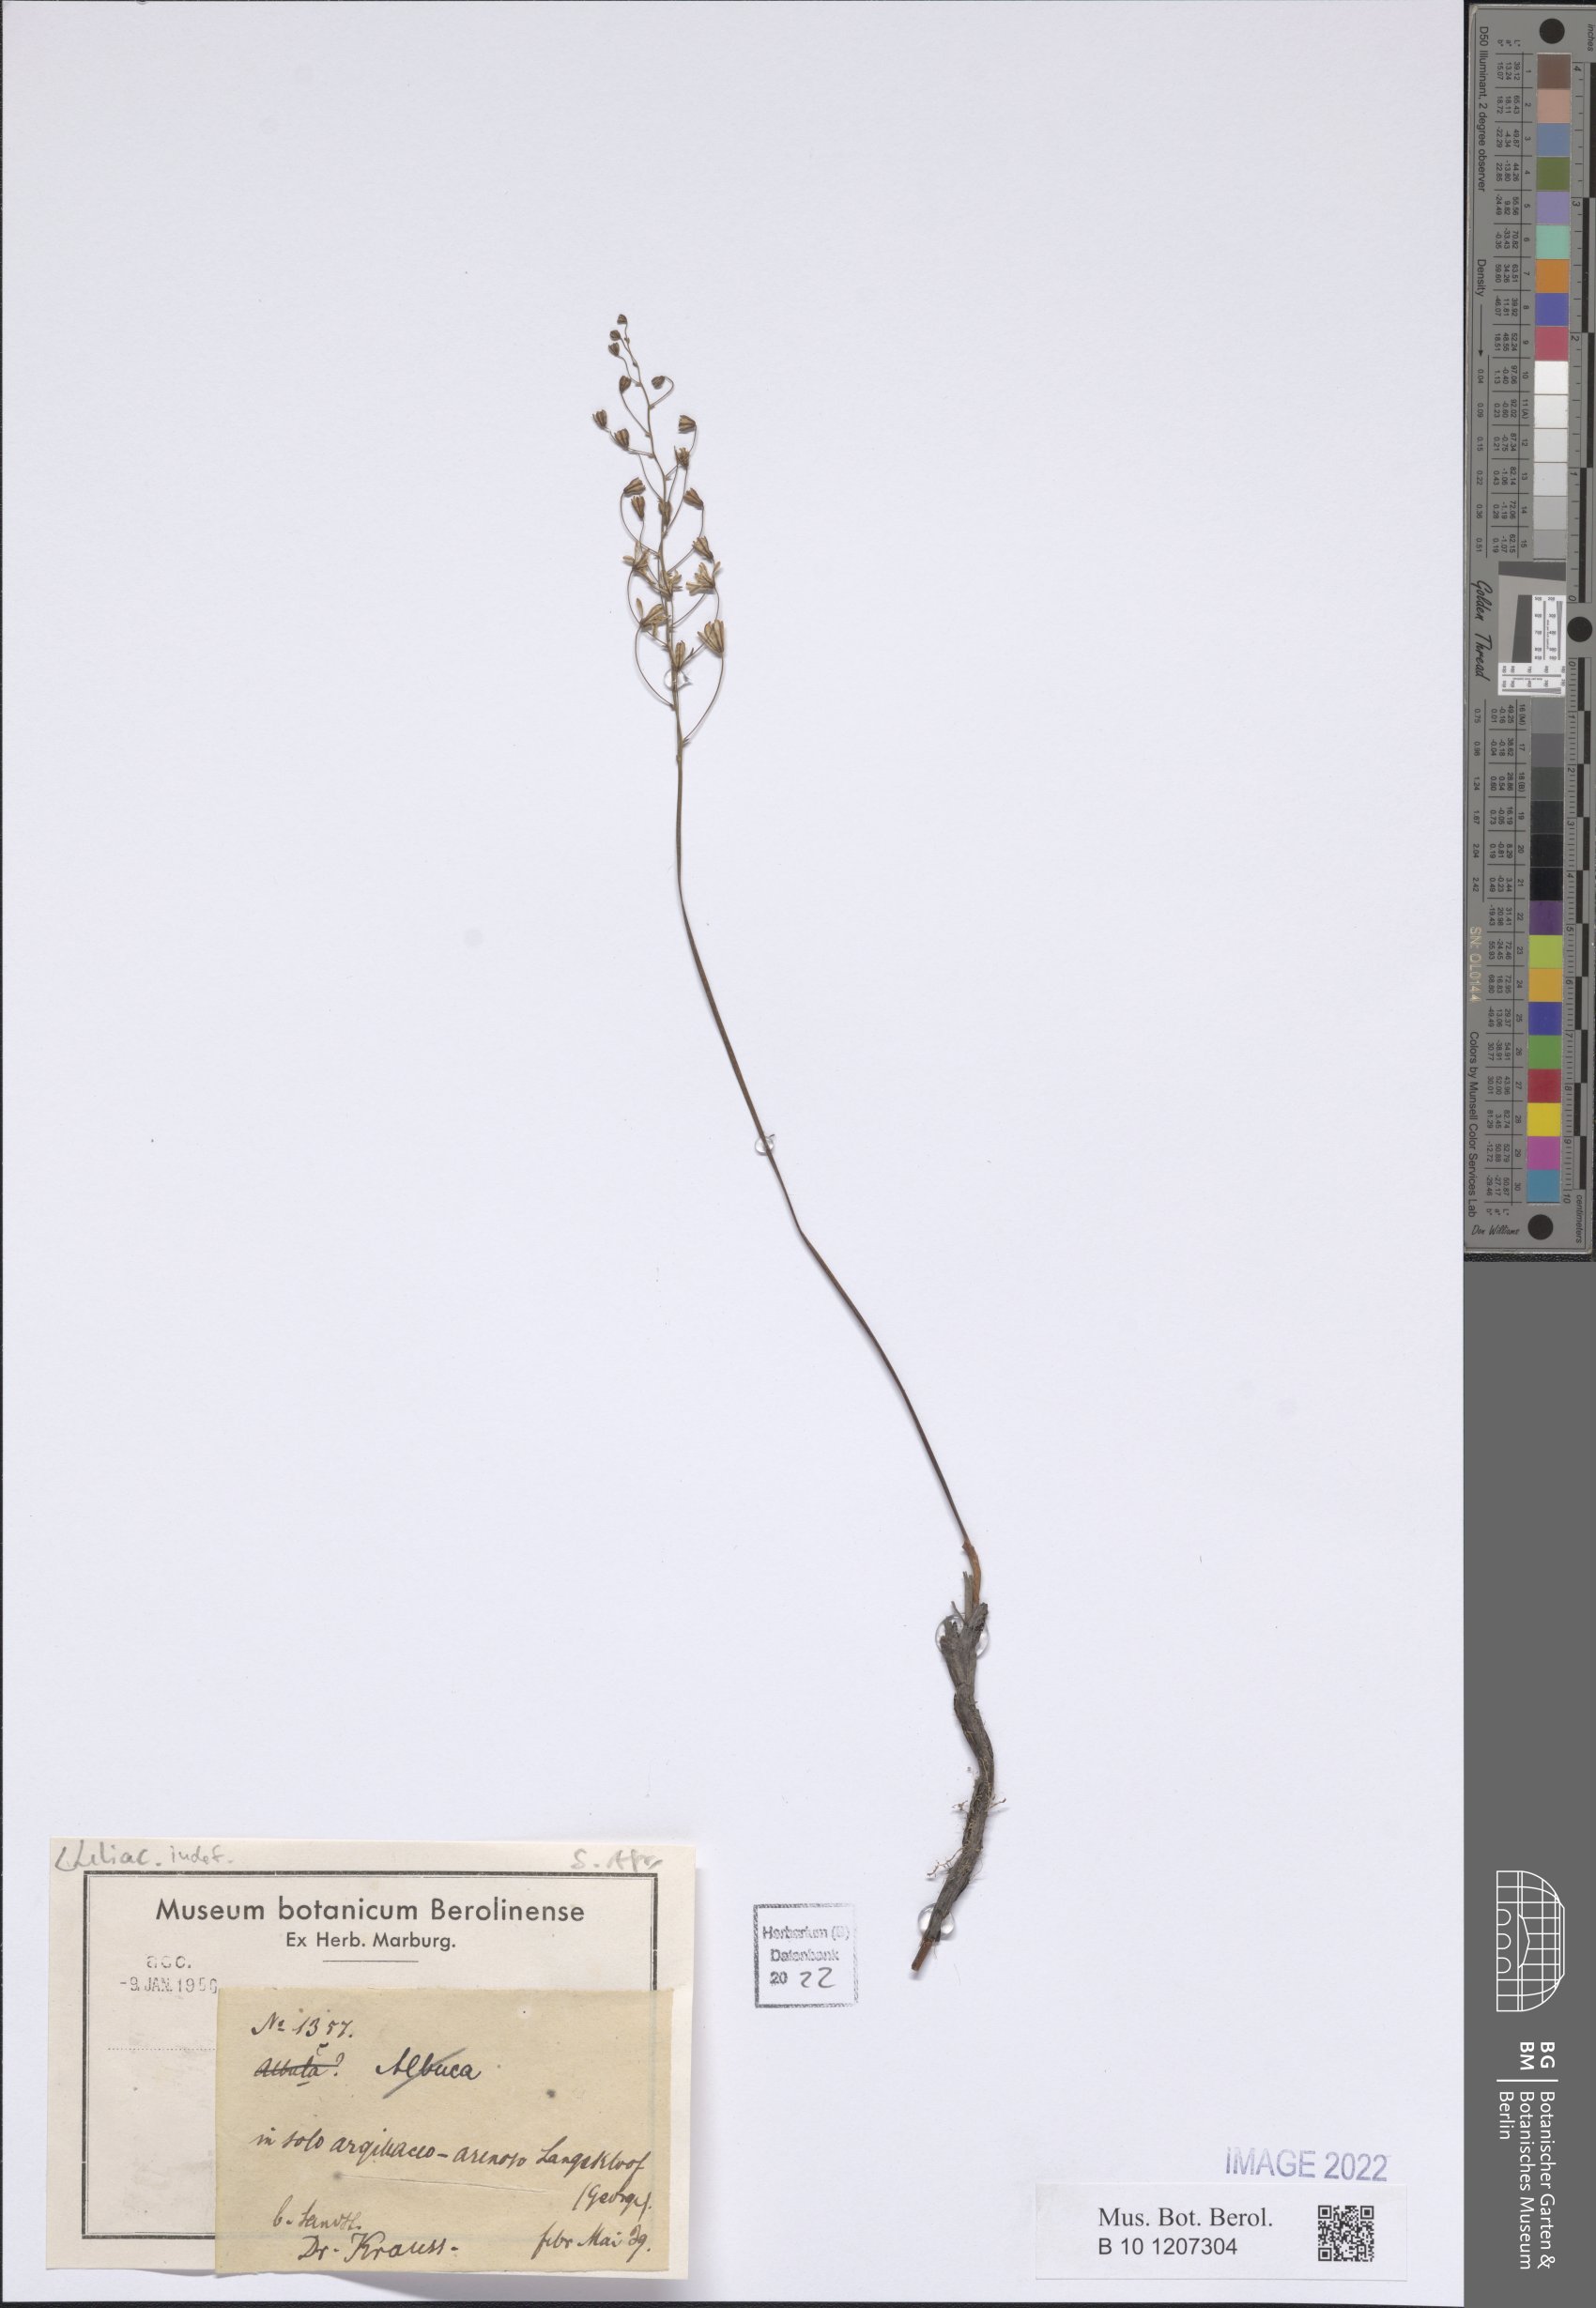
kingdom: Plantae
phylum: Tracheophyta
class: Liliopsida
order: Liliales
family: Liliaceae
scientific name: Liliaceae
